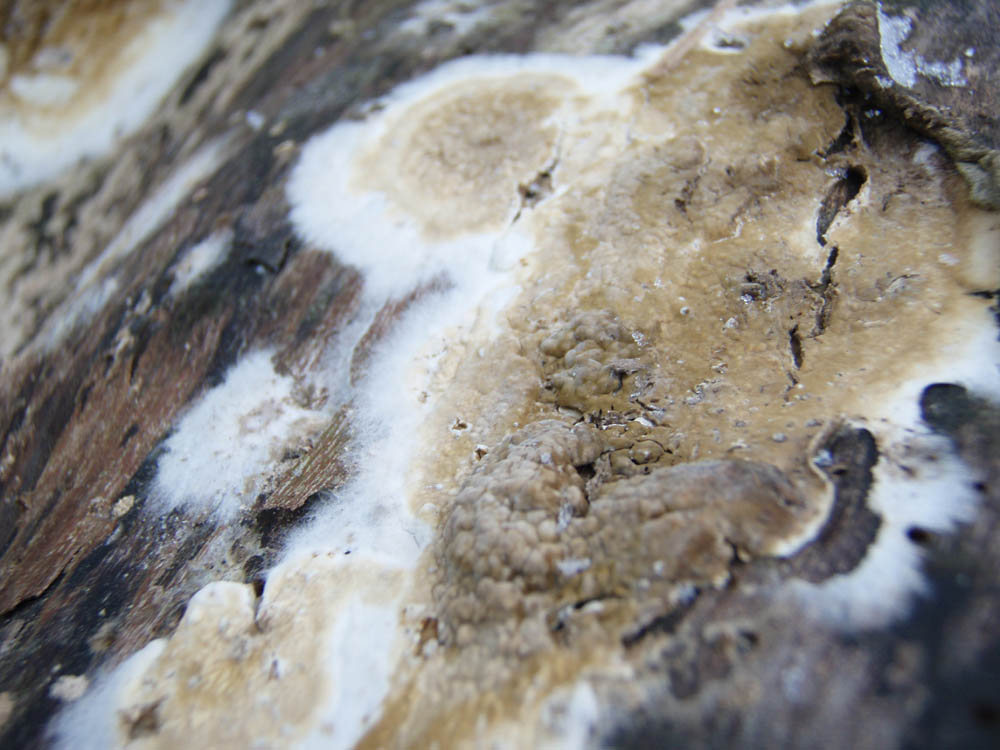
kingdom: Fungi
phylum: Basidiomycota
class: Agaricomycetes
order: Boletales
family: Coniophoraceae
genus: Coniophora
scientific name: Coniophora puteana
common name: gul tømmersvamp
